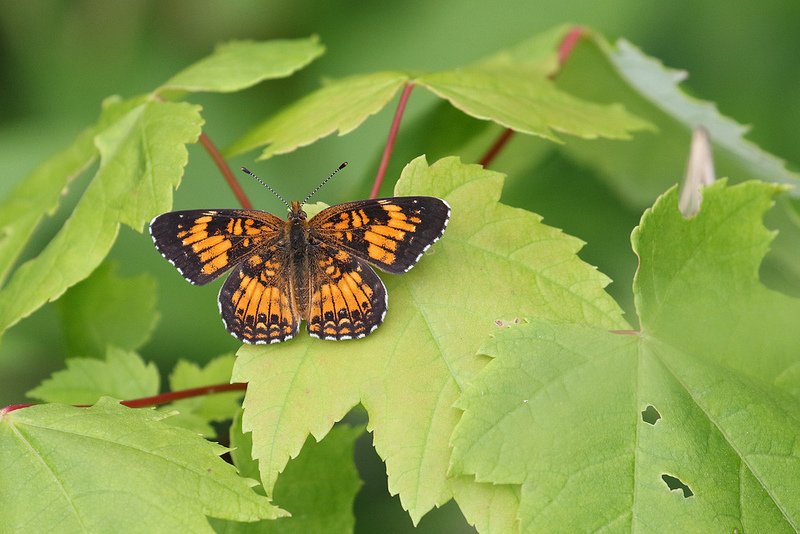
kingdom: Animalia
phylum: Arthropoda
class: Insecta
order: Lepidoptera
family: Nymphalidae
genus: Chlosyne
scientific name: Chlosyne harrisii
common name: Harris's Checkerspot
